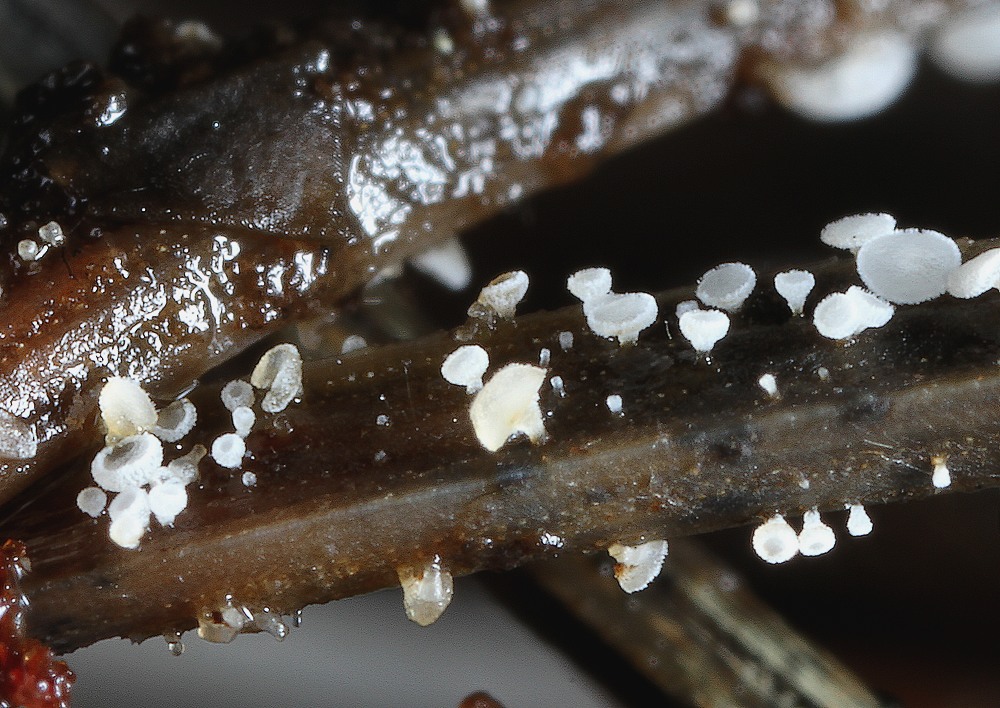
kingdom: Fungi
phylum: Ascomycota
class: Leotiomycetes
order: Helotiales
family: Hyaloscyphaceae
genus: Cistella
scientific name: Cistella acuum
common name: nåle-sirskive
